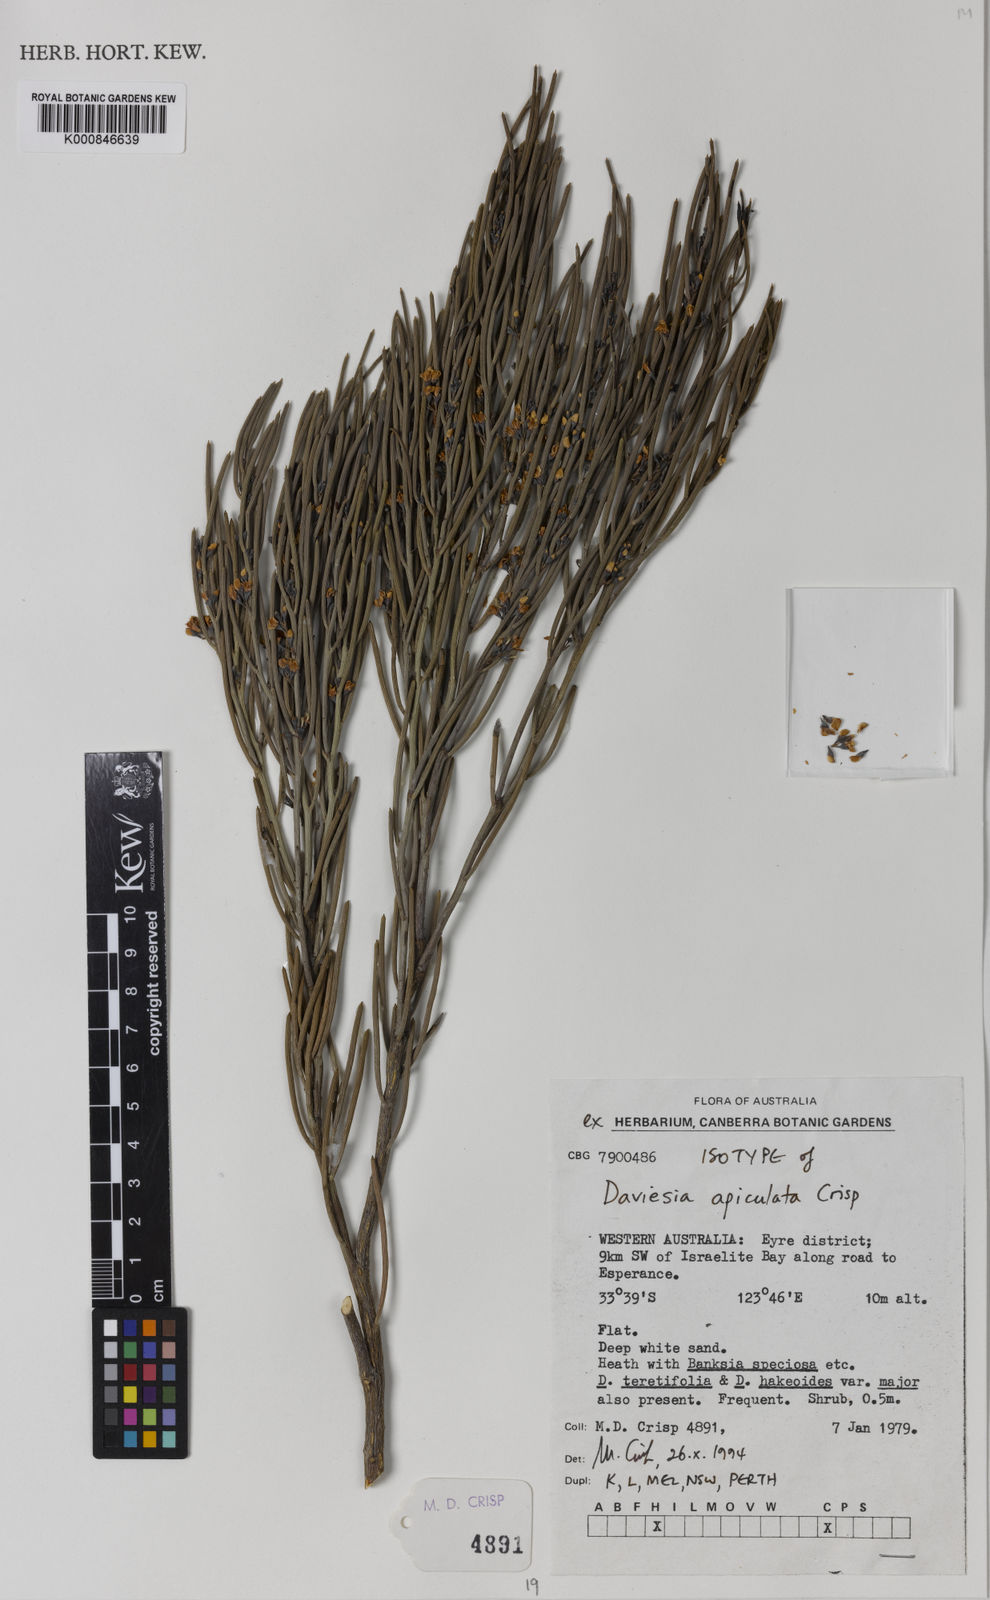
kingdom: Plantae
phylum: Tracheophyta
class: Magnoliopsida
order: Fabales
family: Fabaceae
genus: Daviesia
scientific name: Daviesia apiculata
